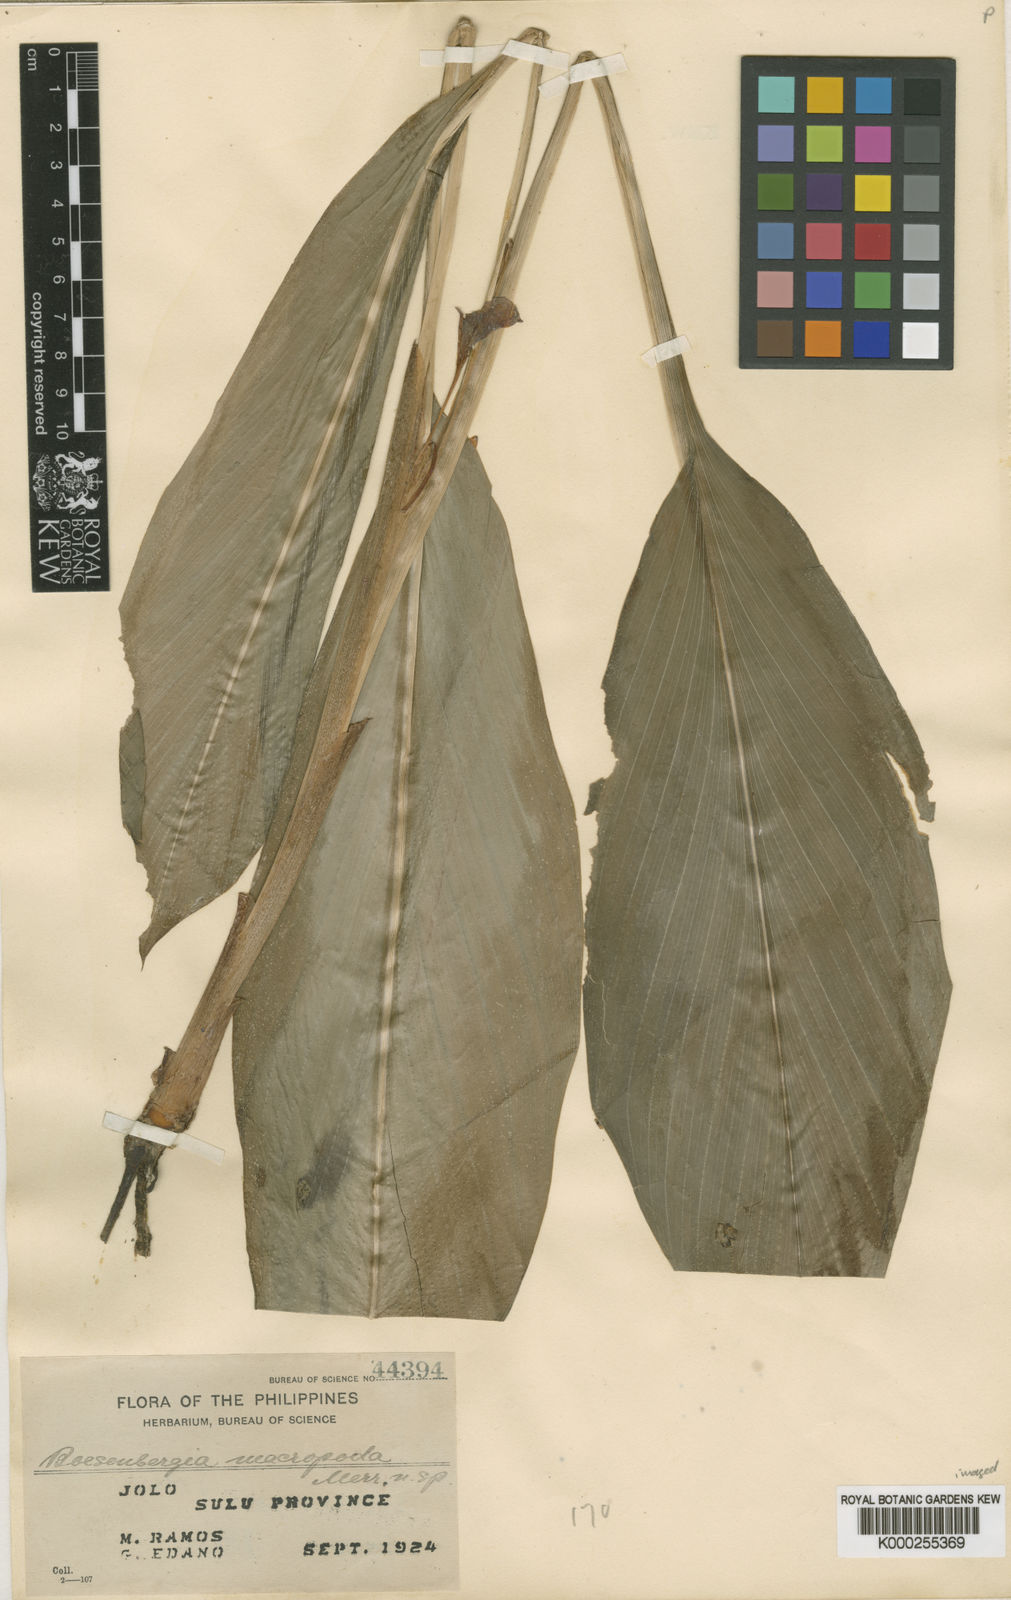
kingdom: Plantae
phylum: Tracheophyta
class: Liliopsida
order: Zingiberales
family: Zingiberaceae
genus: Boesenbergia
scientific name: Boesenbergia macropoda
